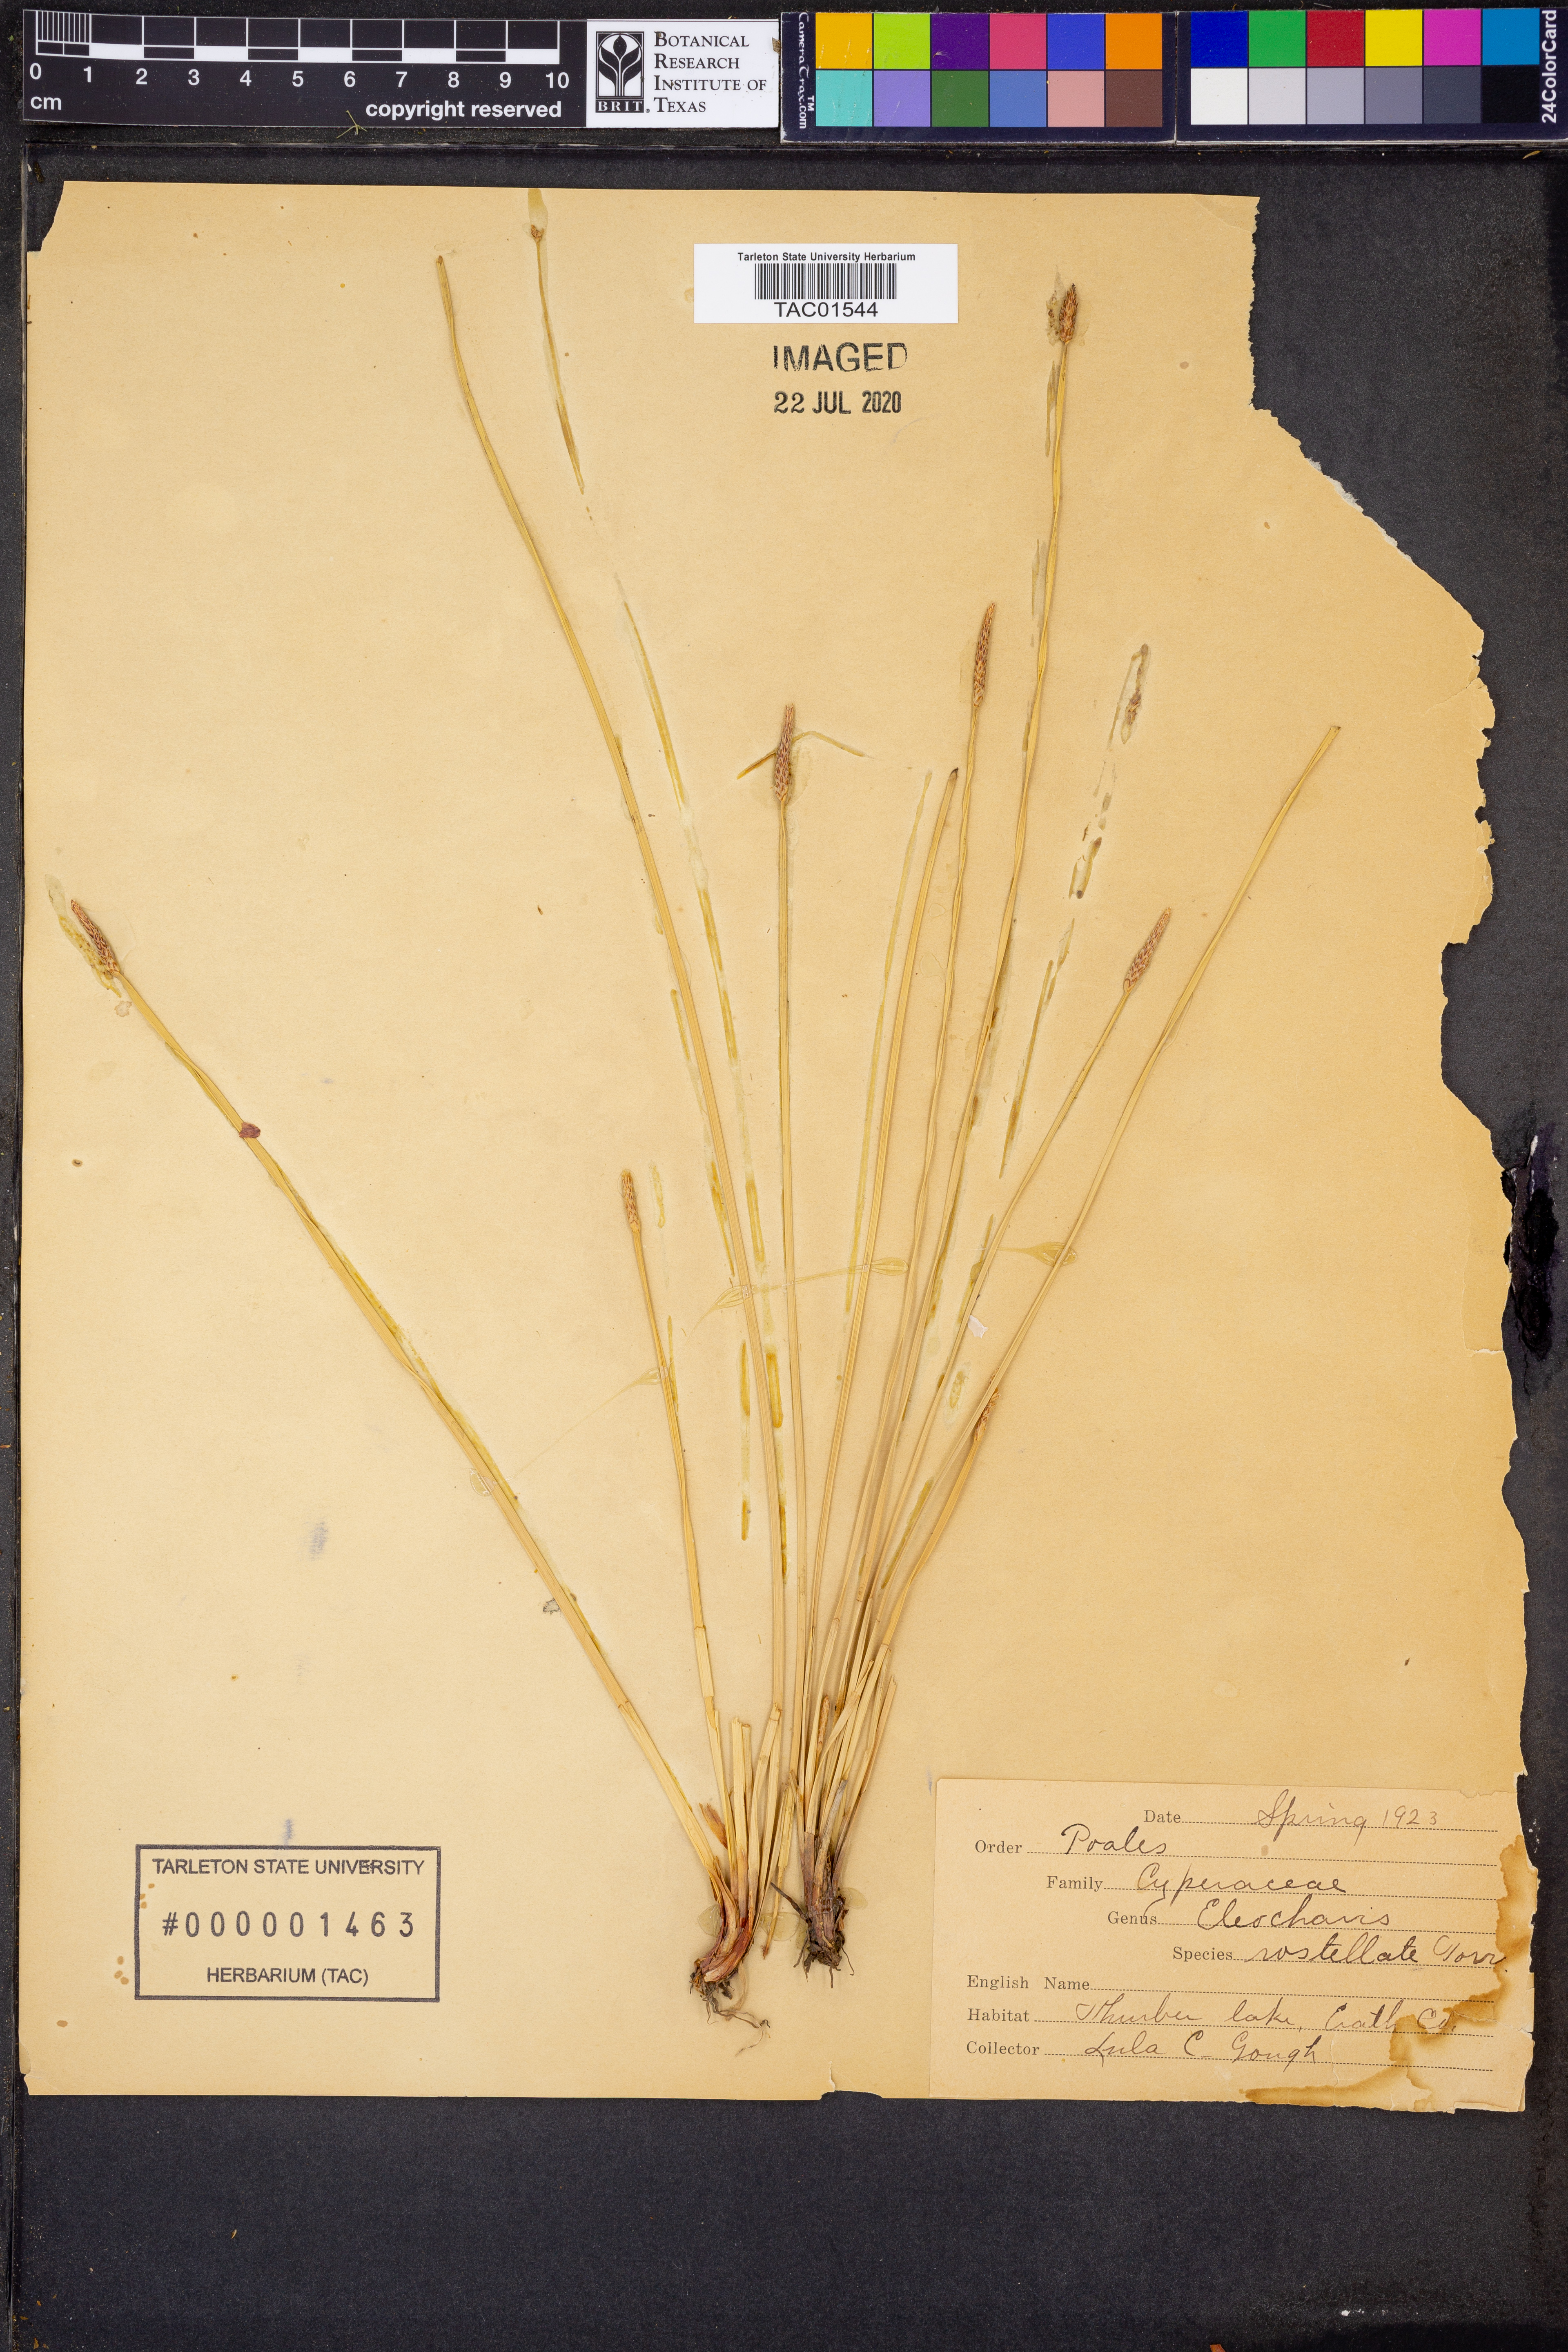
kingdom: Plantae
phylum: Tracheophyta
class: Liliopsida
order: Poales
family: Cyperaceae
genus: Eleocharis
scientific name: Eleocharis rostellata
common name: Walking sedge
